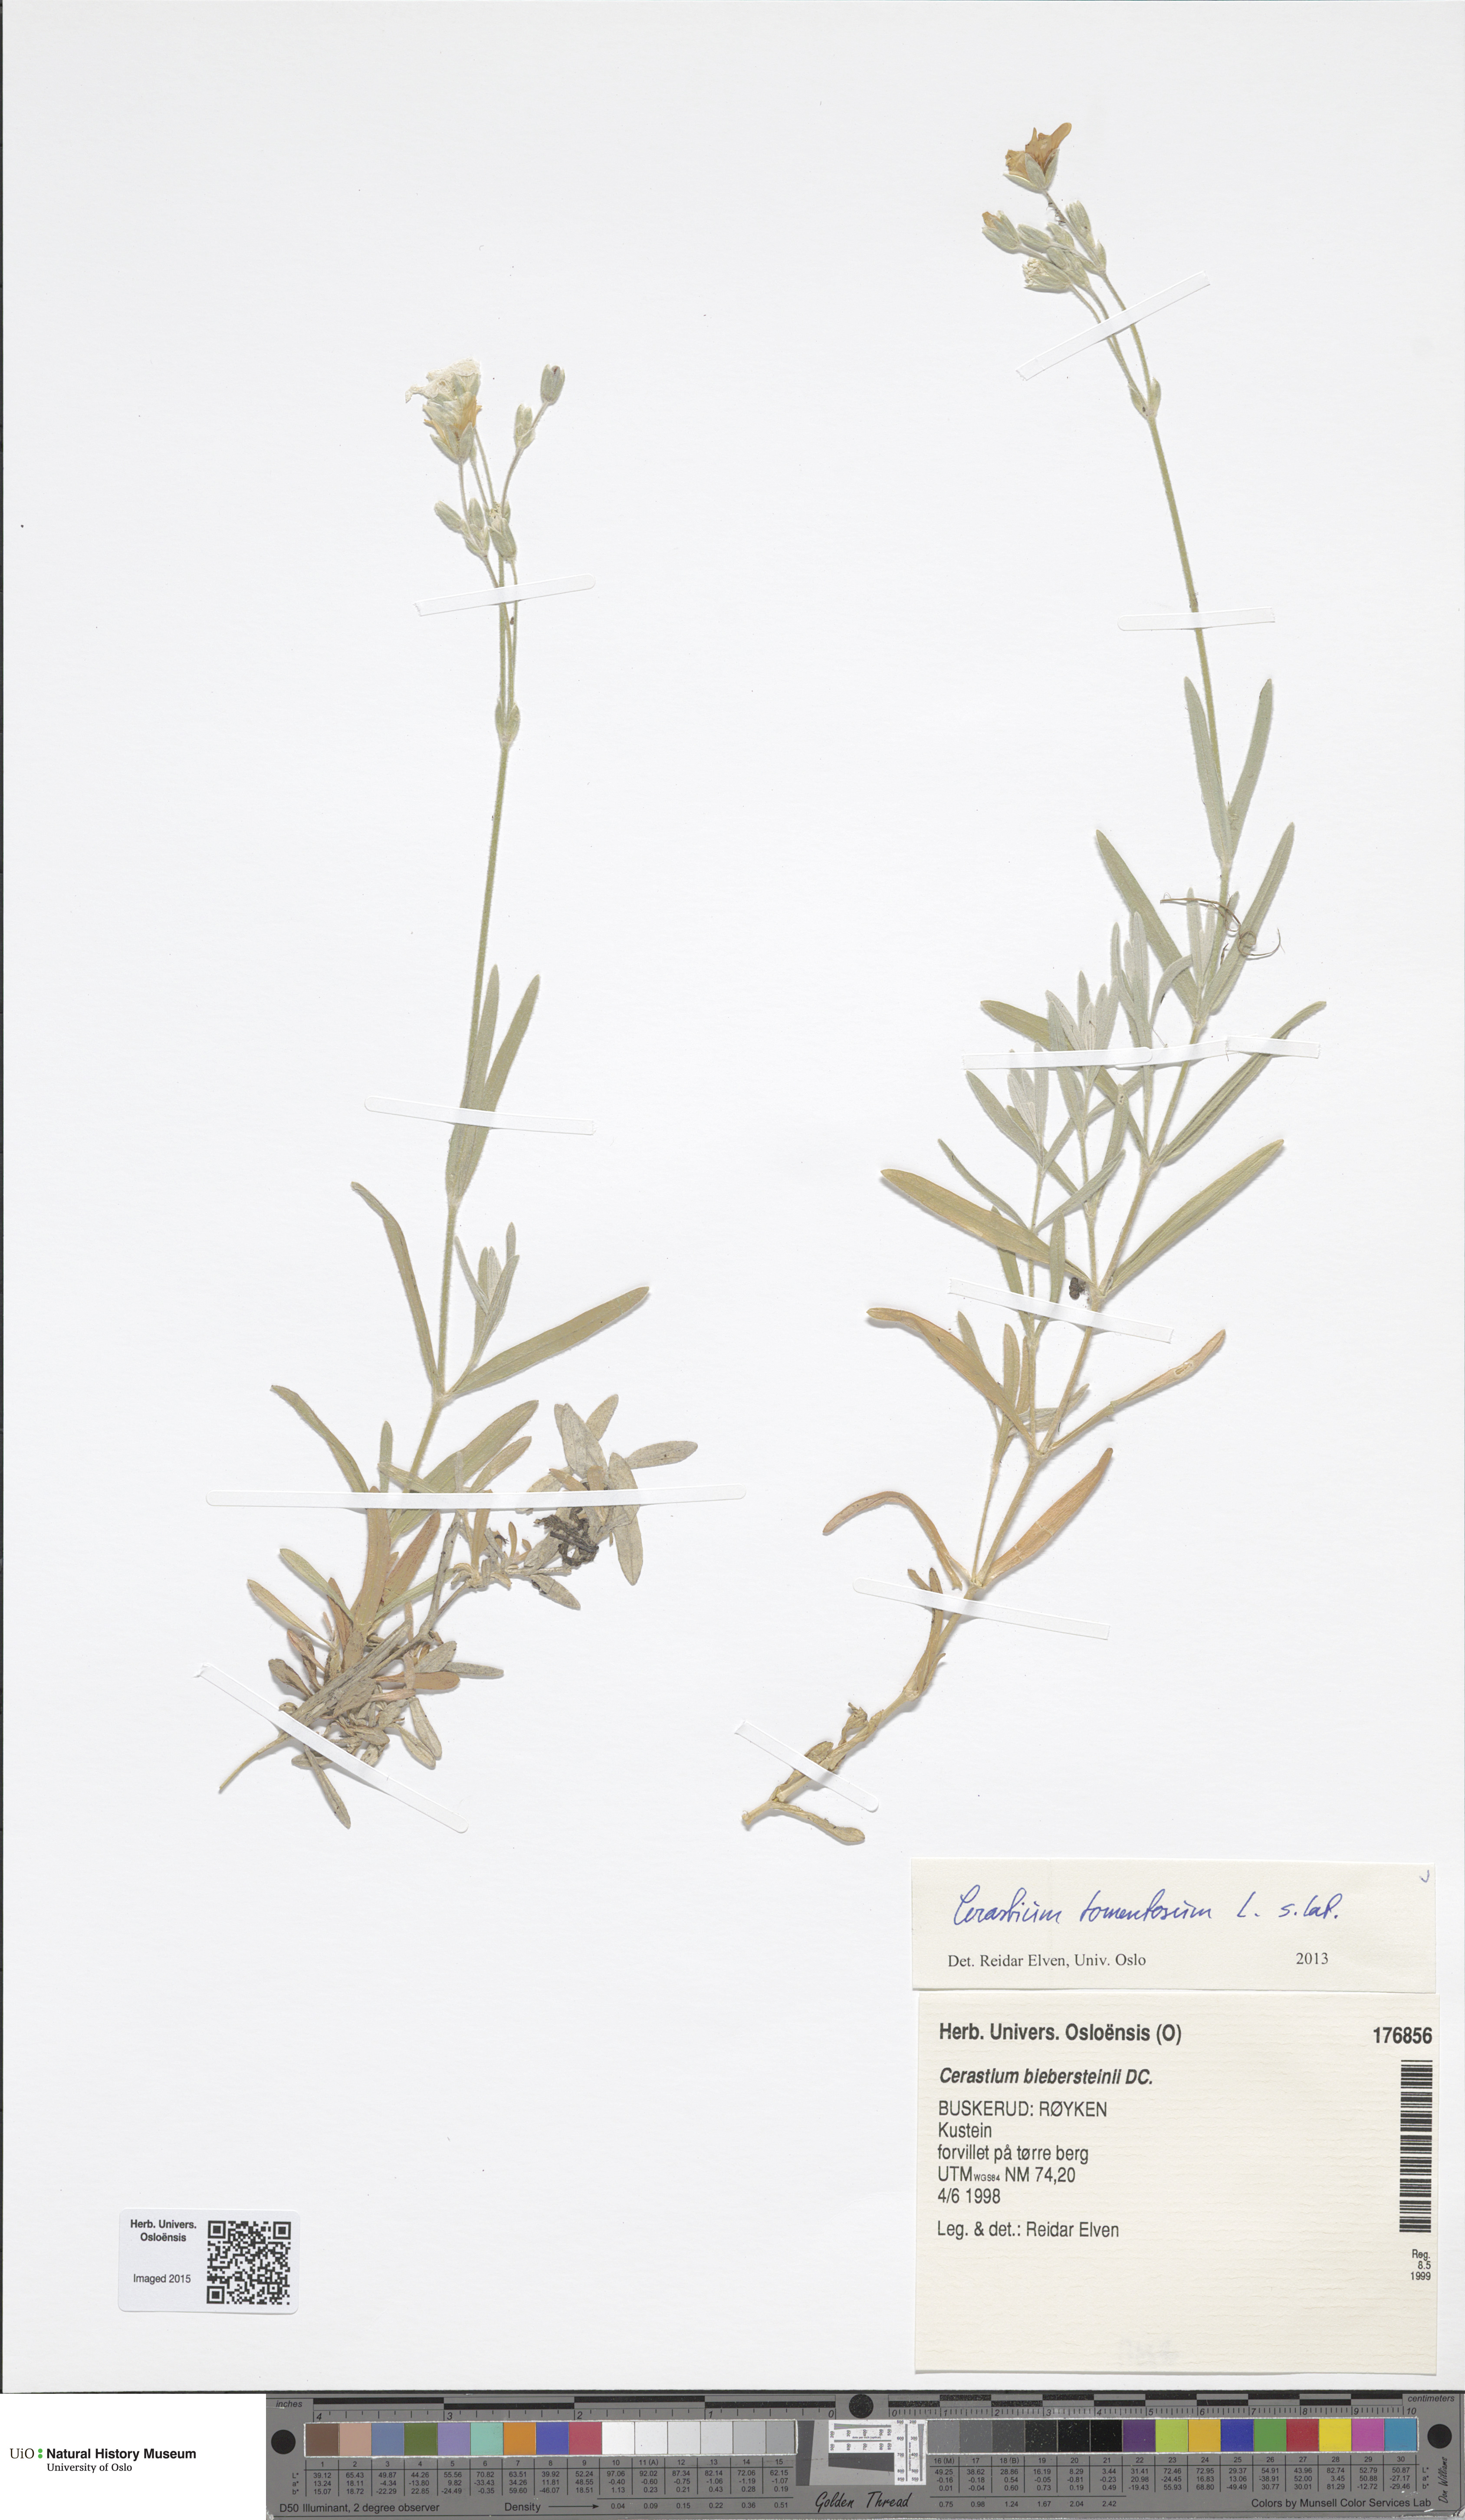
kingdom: Plantae
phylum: Tracheophyta
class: Magnoliopsida
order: Caryophyllales
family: Caryophyllaceae
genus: Cerastium
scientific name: Cerastium tomentosum
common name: Snow-in-summer
